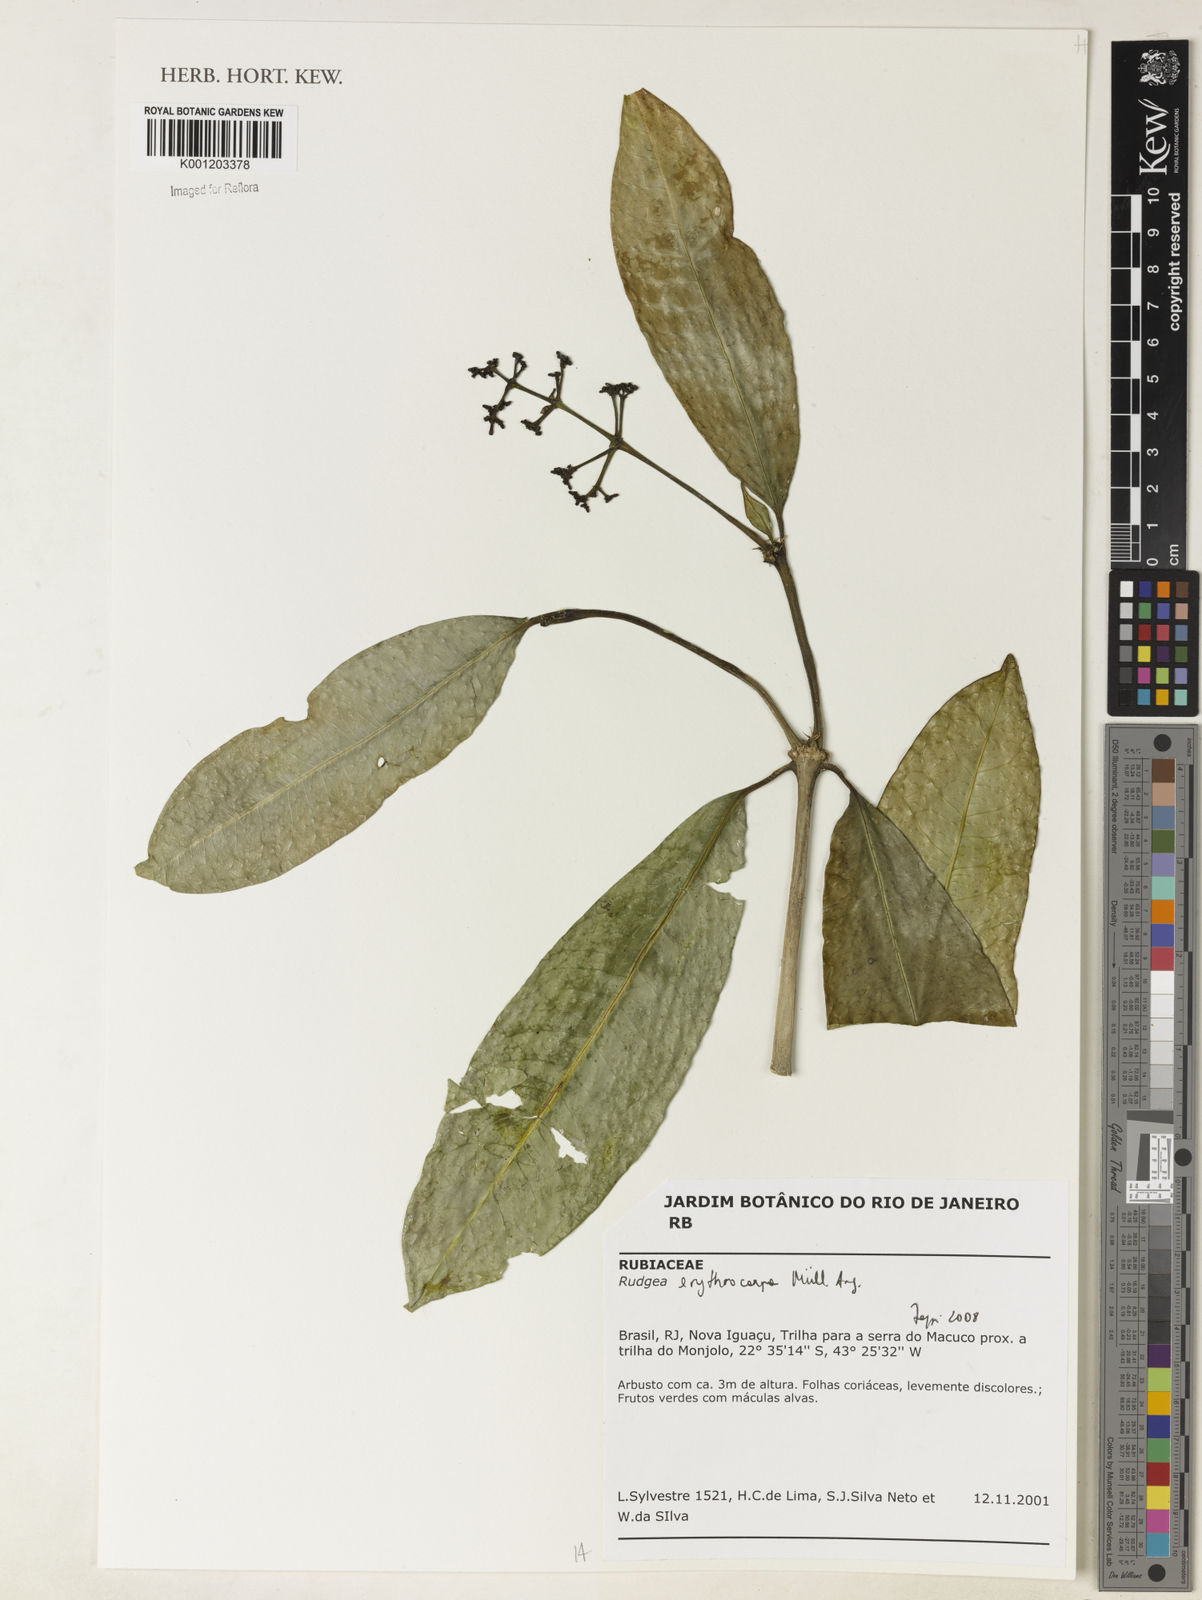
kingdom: Plantae
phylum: Tracheophyta
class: Magnoliopsida
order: Gentianales
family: Rubiaceae
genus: Rudgea
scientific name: Rudgea
